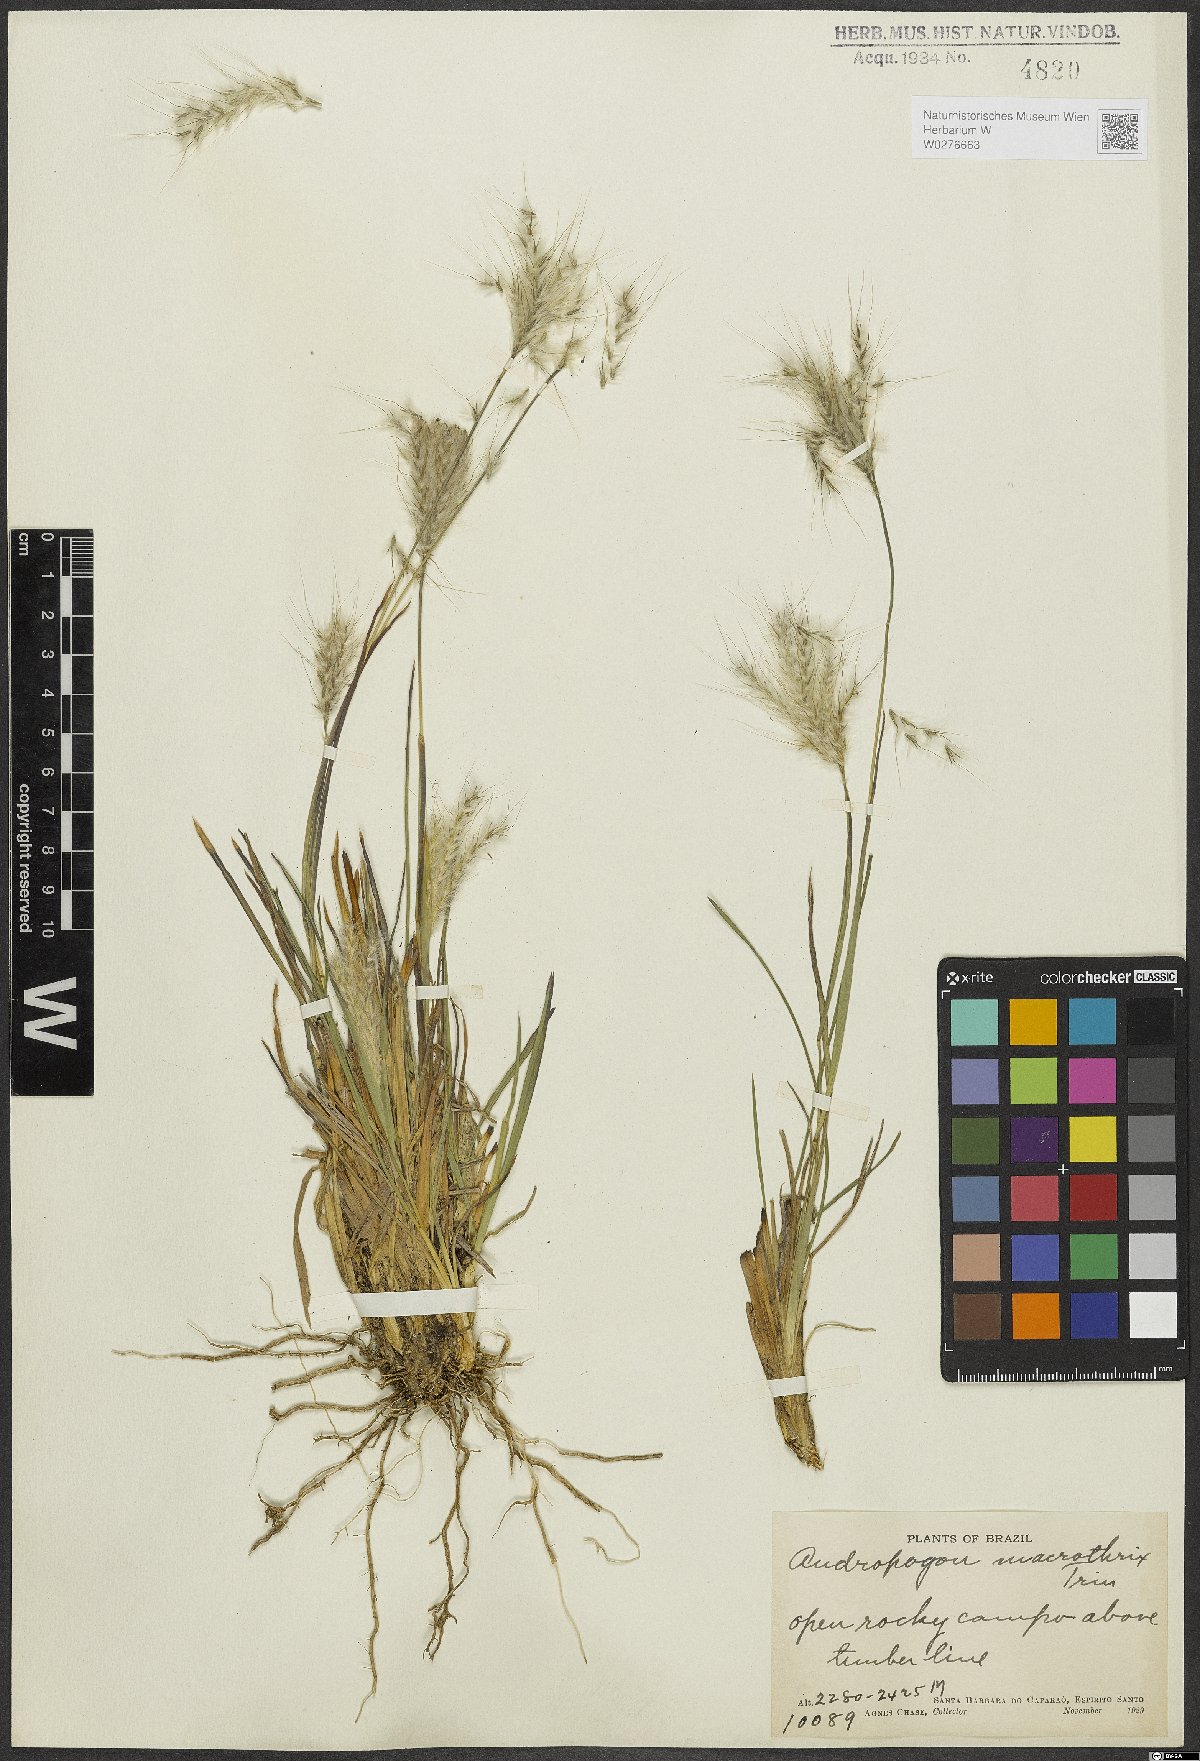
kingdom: Plantae
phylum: Tracheophyta
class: Liliopsida
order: Poales
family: Poaceae
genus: Andropogon
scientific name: Andropogon macrothrix
